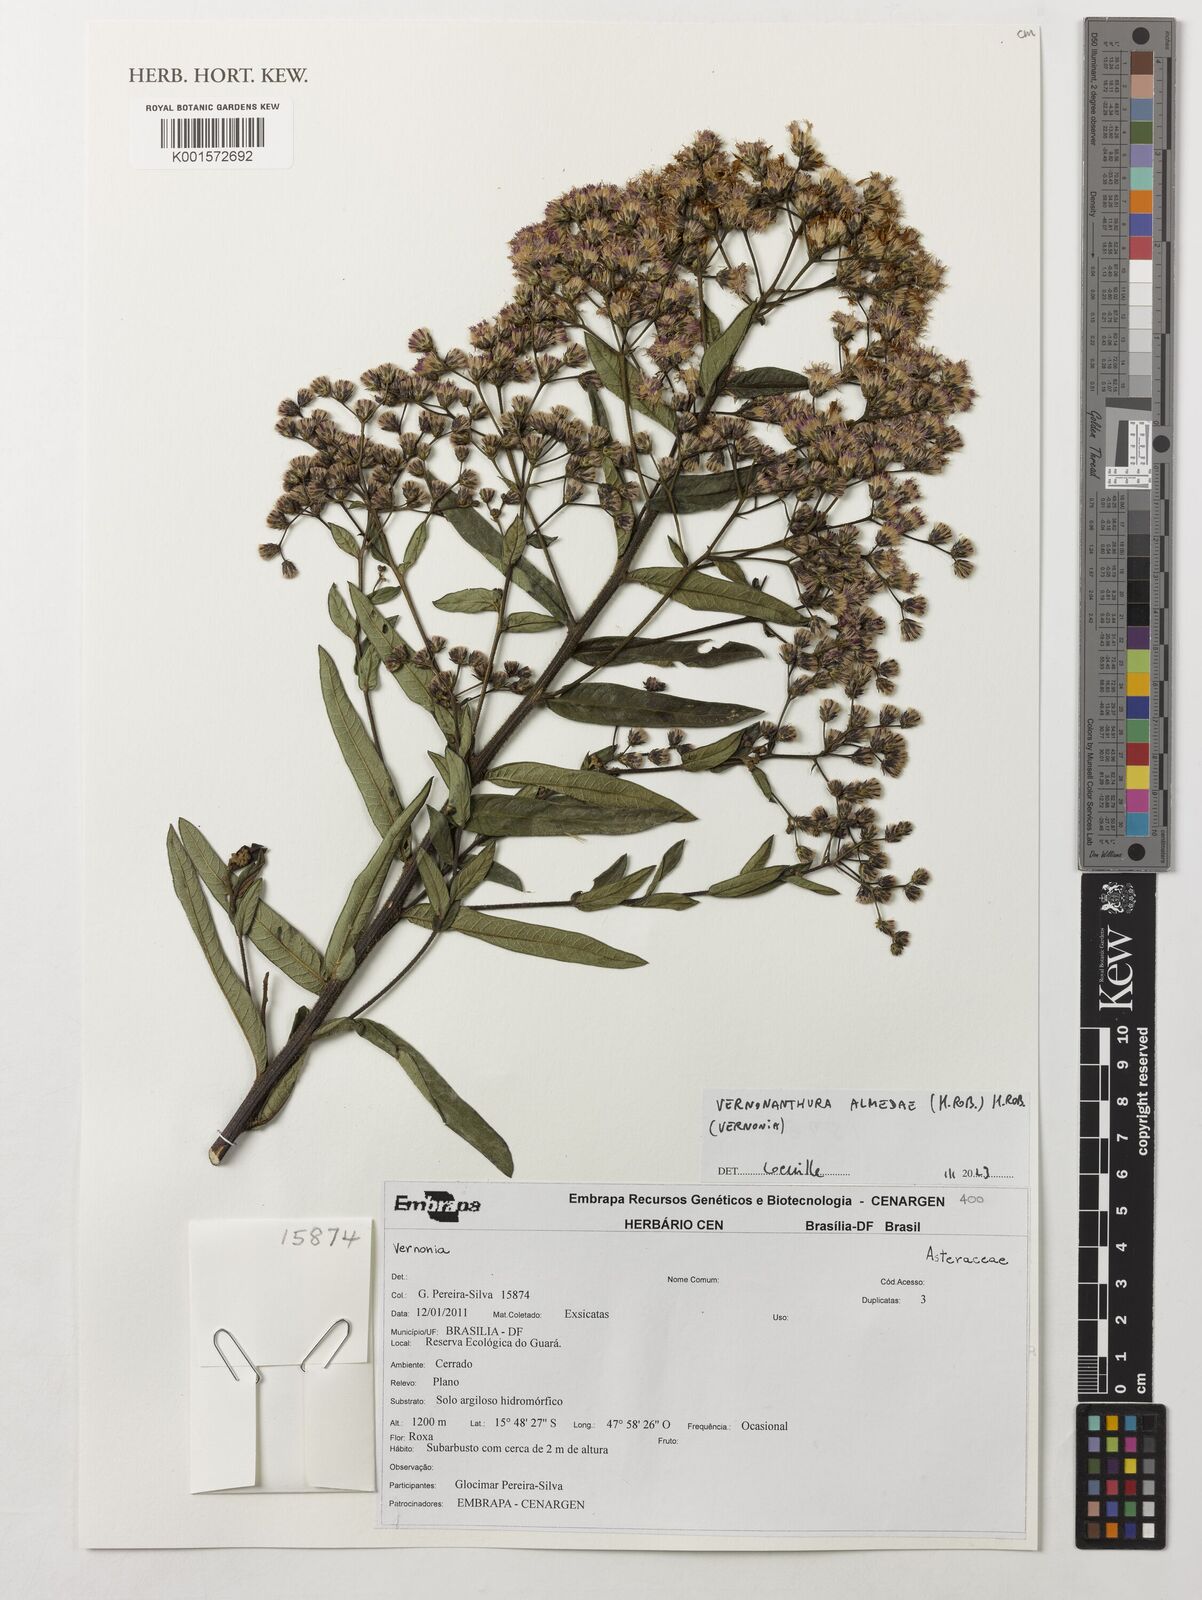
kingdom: Plantae
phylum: Tracheophyta
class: Magnoliopsida
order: Asterales
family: Asteraceae
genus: Vernonanthura
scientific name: Vernonanthura almedae
